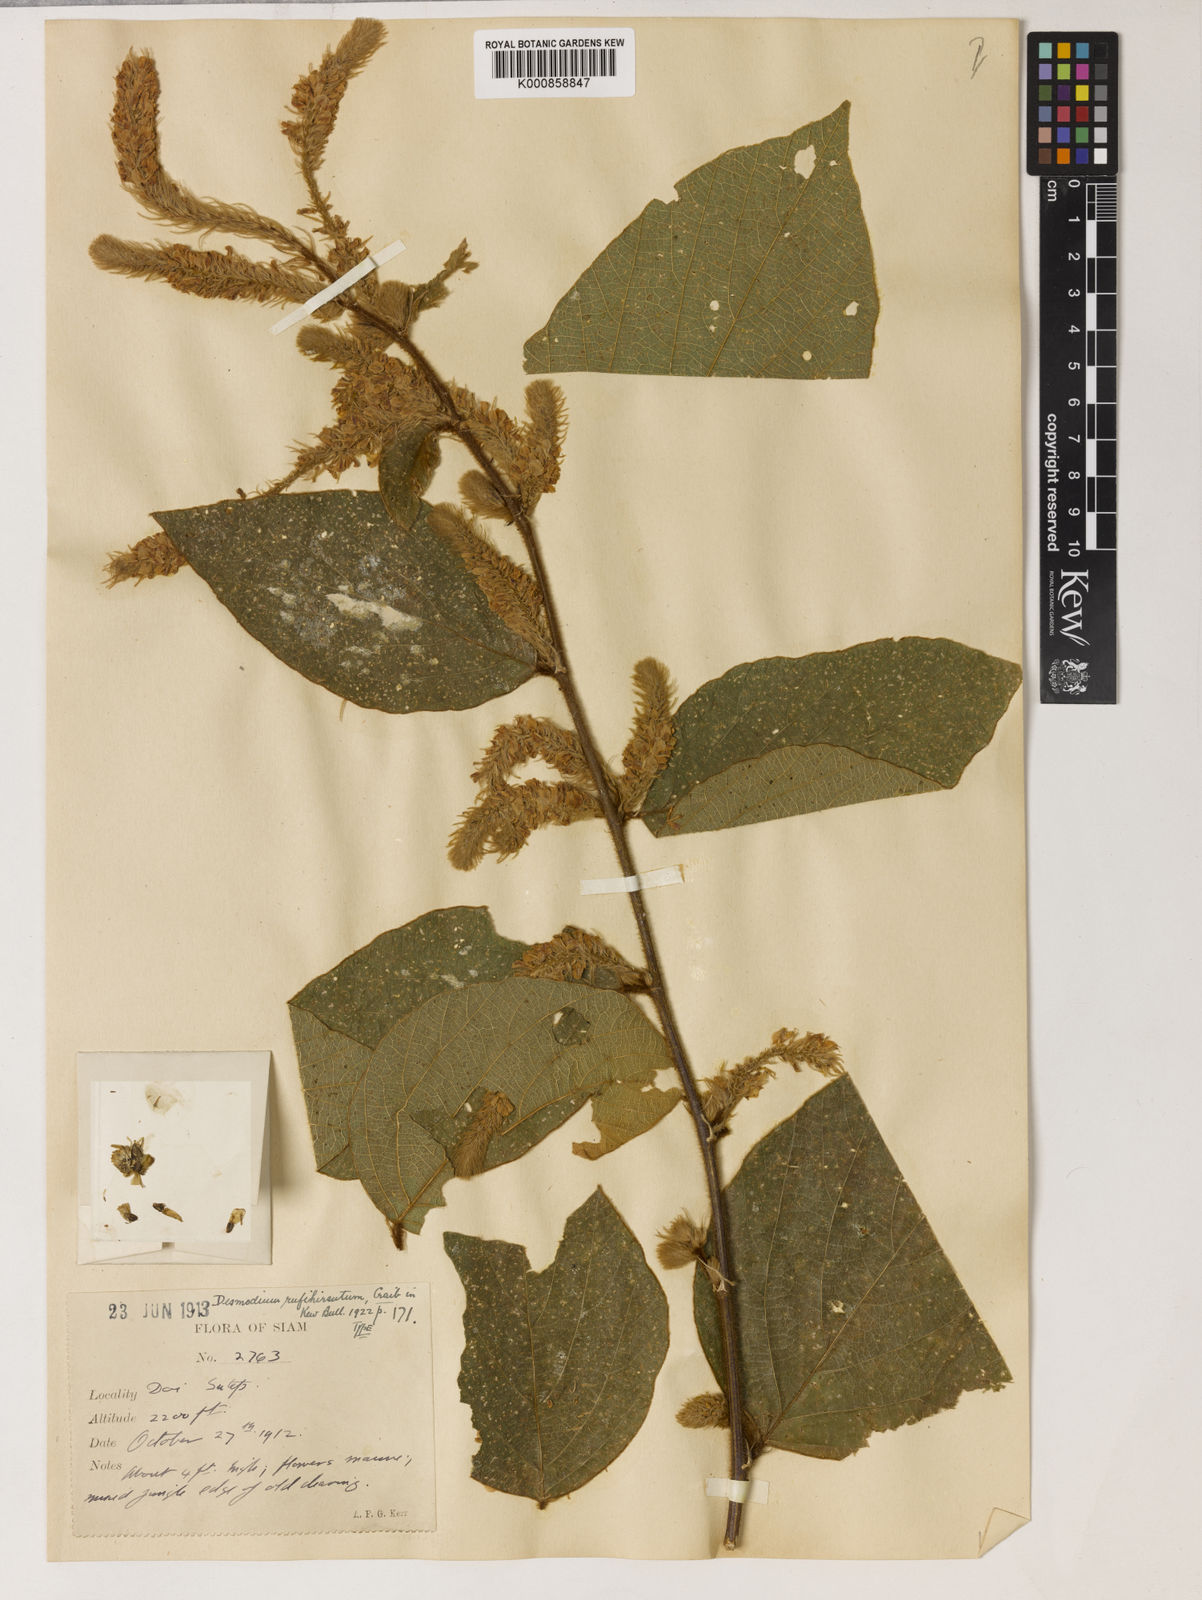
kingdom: Plantae
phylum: Tracheophyta
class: Magnoliopsida
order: Fabales
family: Fabaceae
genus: Polhillides
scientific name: Polhillides velutina
